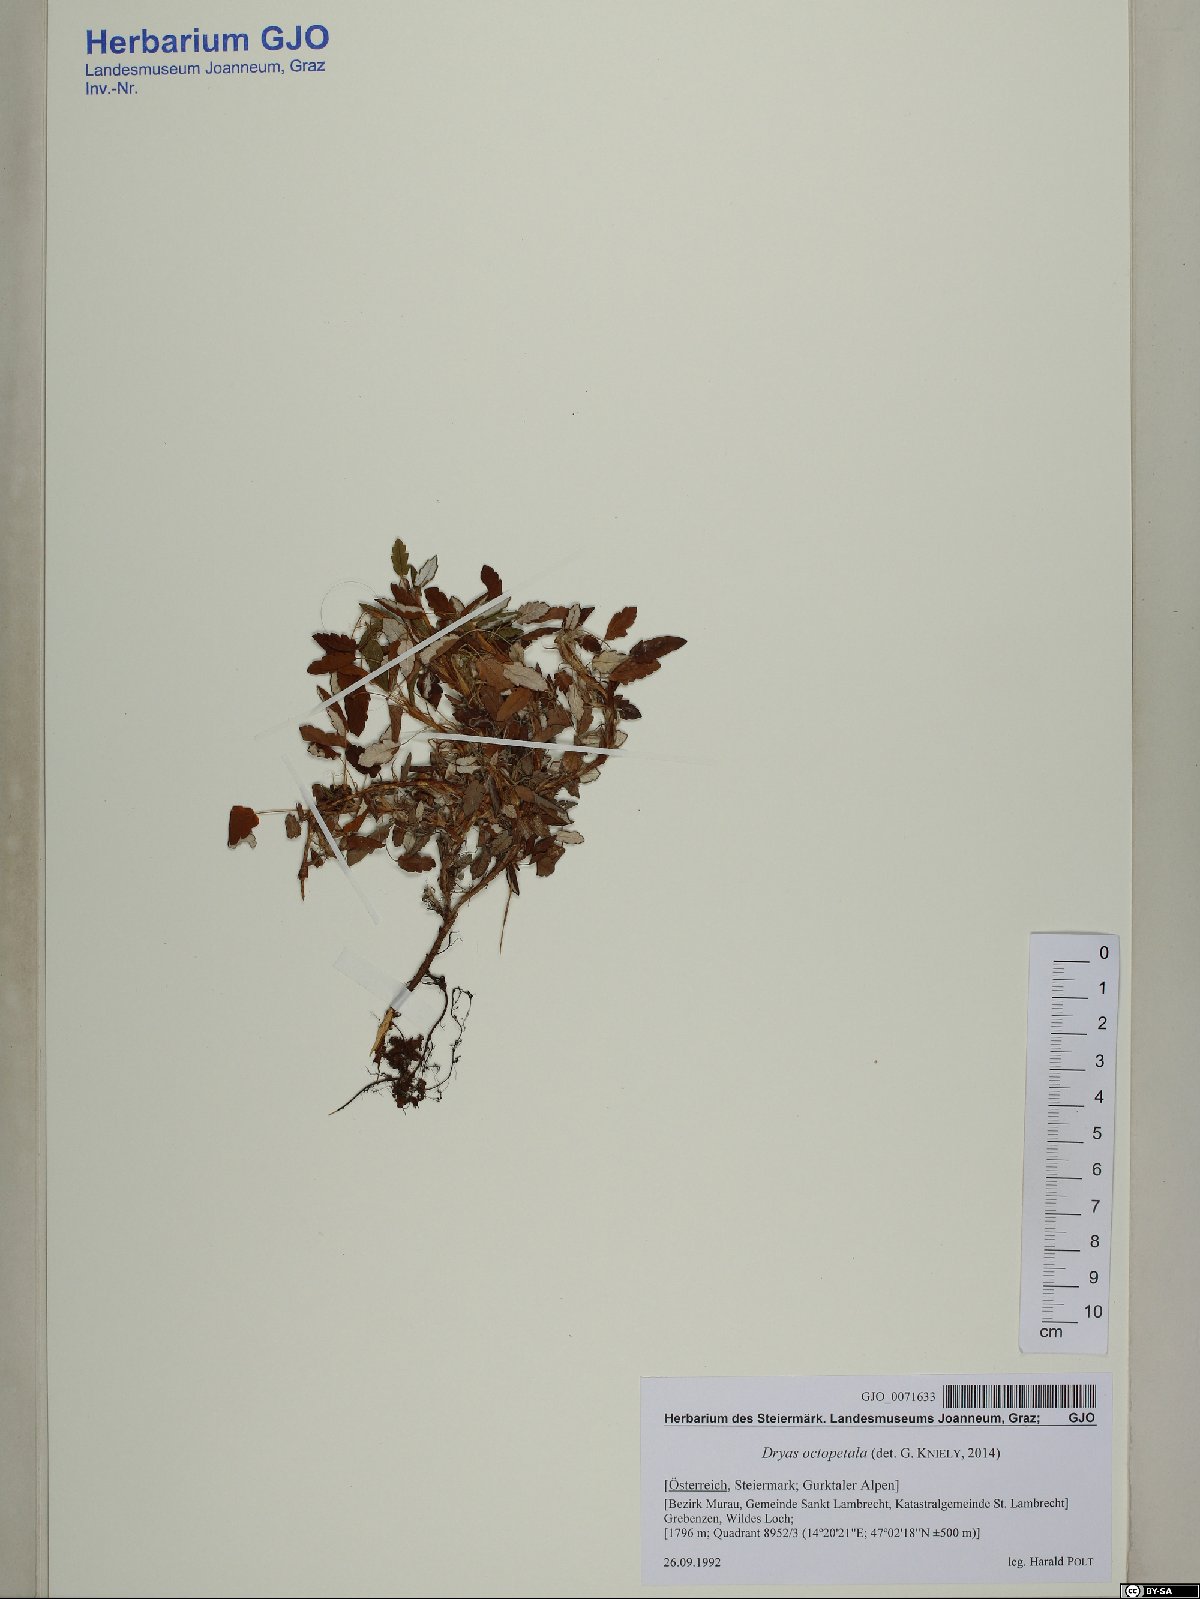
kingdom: Plantae
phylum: Tracheophyta
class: Magnoliopsida
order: Rosales
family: Rosaceae
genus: Dryas
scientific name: Dryas octopetala
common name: Eight-petal mountain-avens
